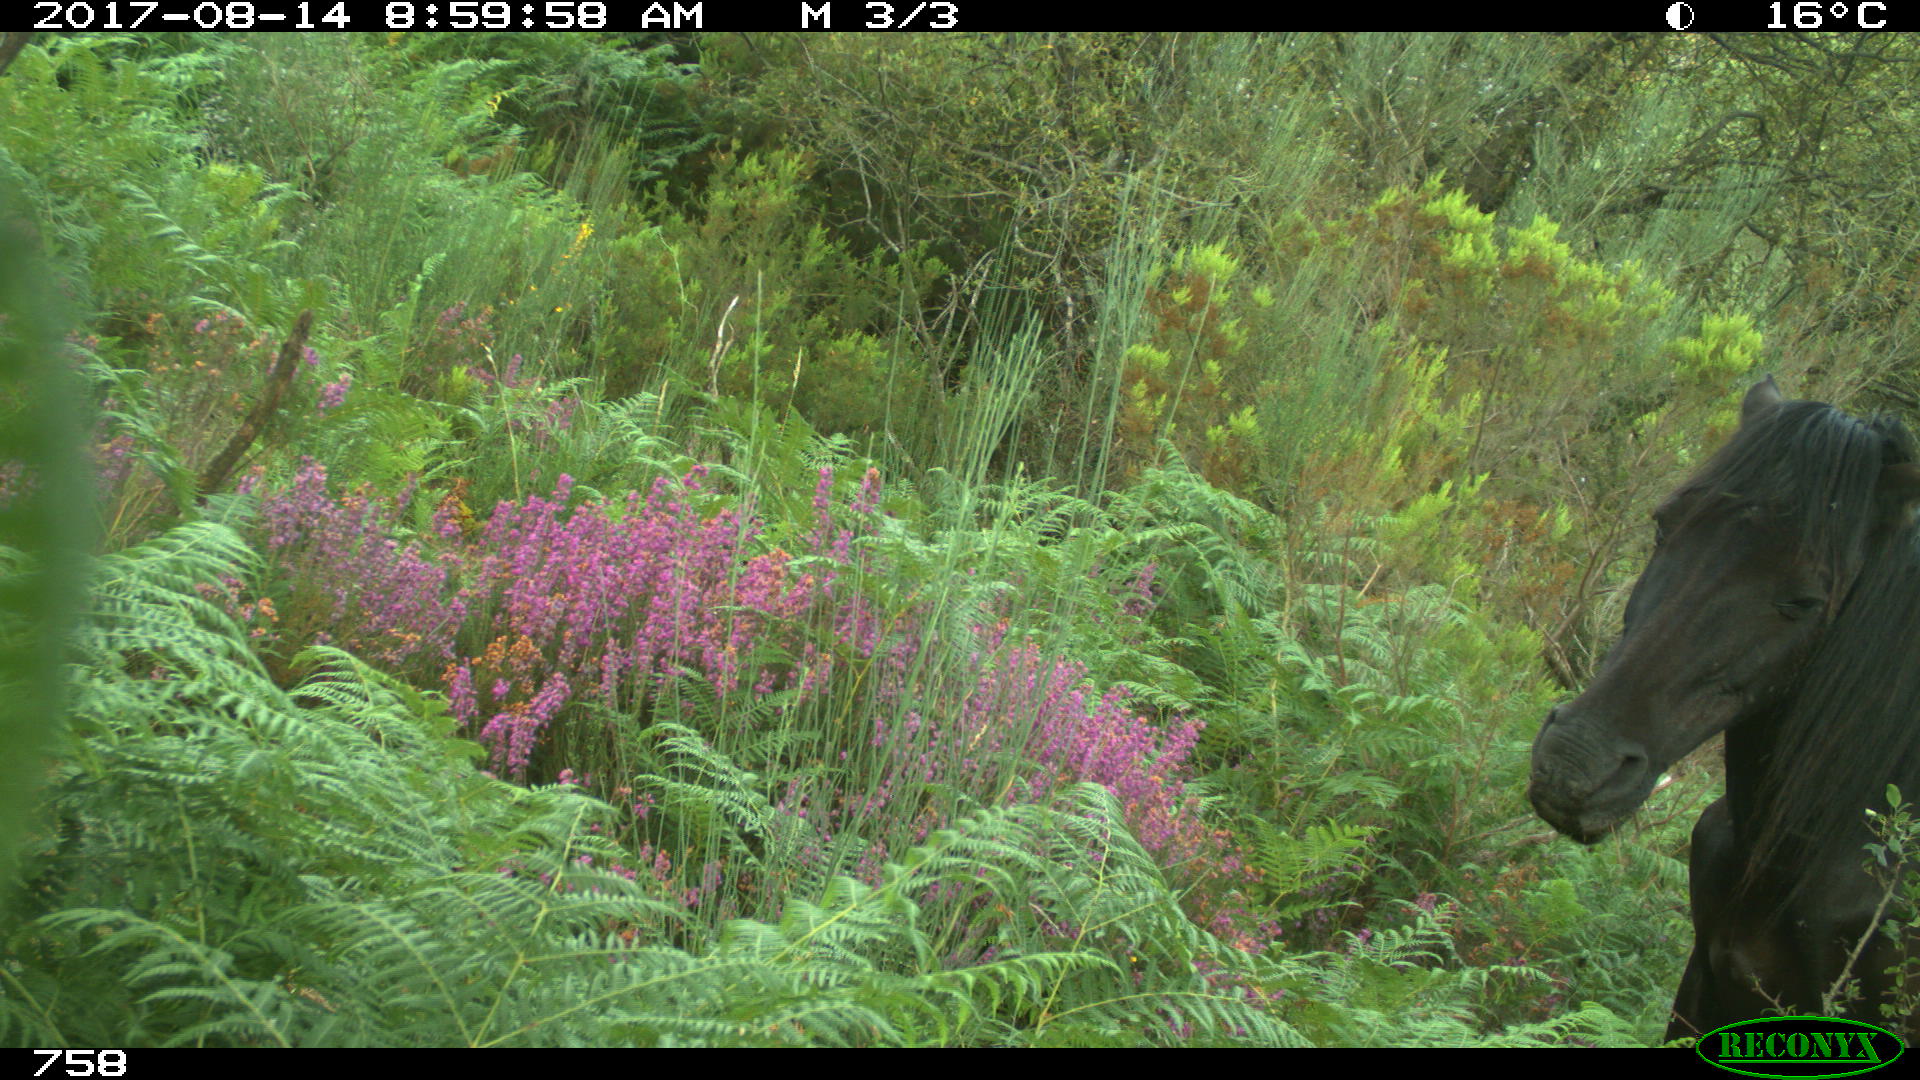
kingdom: Animalia
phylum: Chordata
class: Mammalia
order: Perissodactyla
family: Equidae
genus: Equus
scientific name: Equus caballus
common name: Horse
